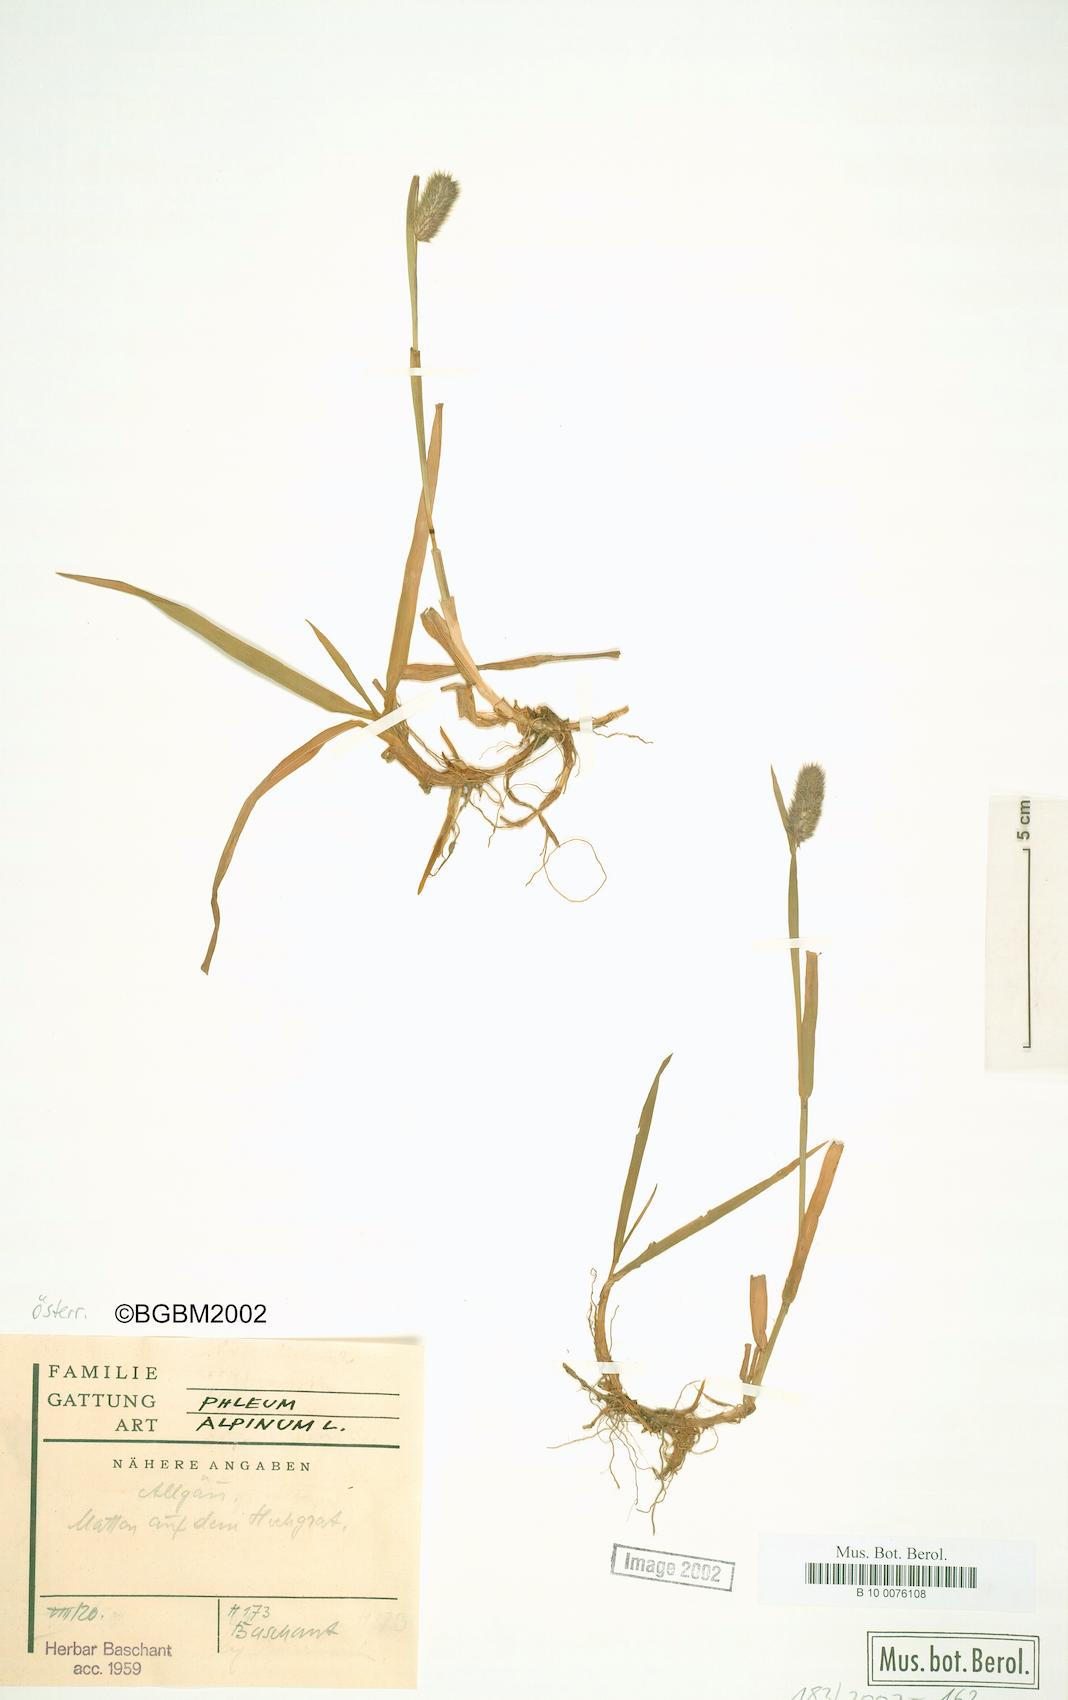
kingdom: Plantae
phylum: Tracheophyta
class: Liliopsida
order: Poales
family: Poaceae
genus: Phleum
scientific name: Phleum alpinum
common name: Alpine cat's-tail
